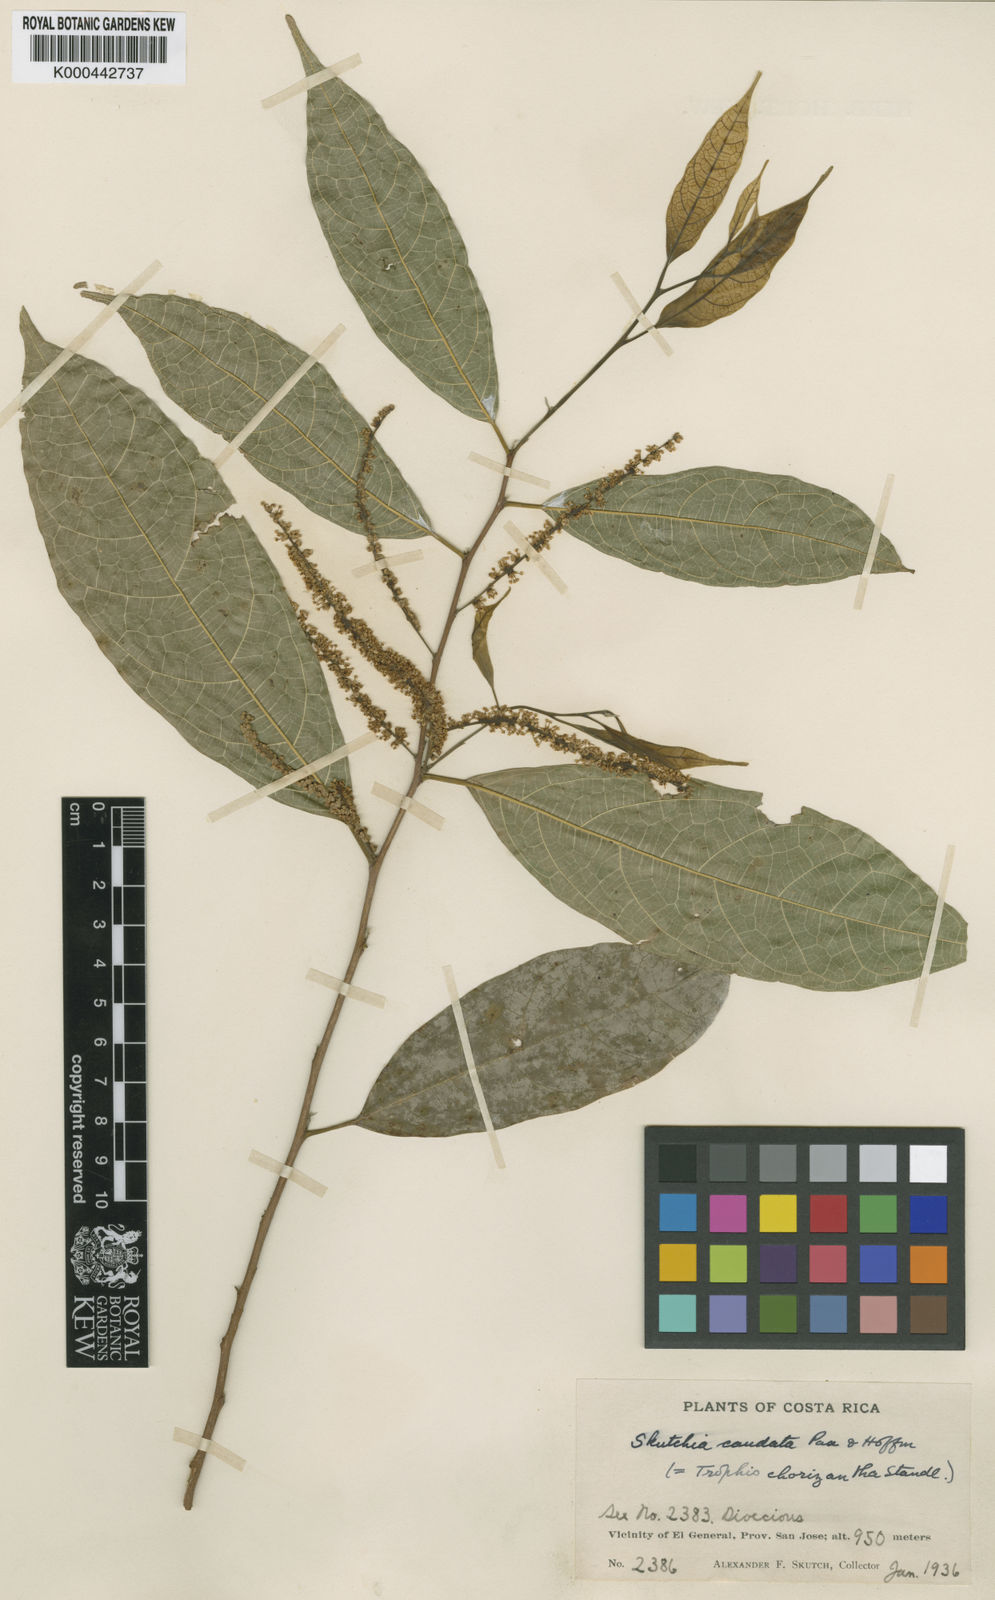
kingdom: Plantae
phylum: Tracheophyta
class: Magnoliopsida
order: Rosales
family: Moraceae
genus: Trophis
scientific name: Trophis mexicana
